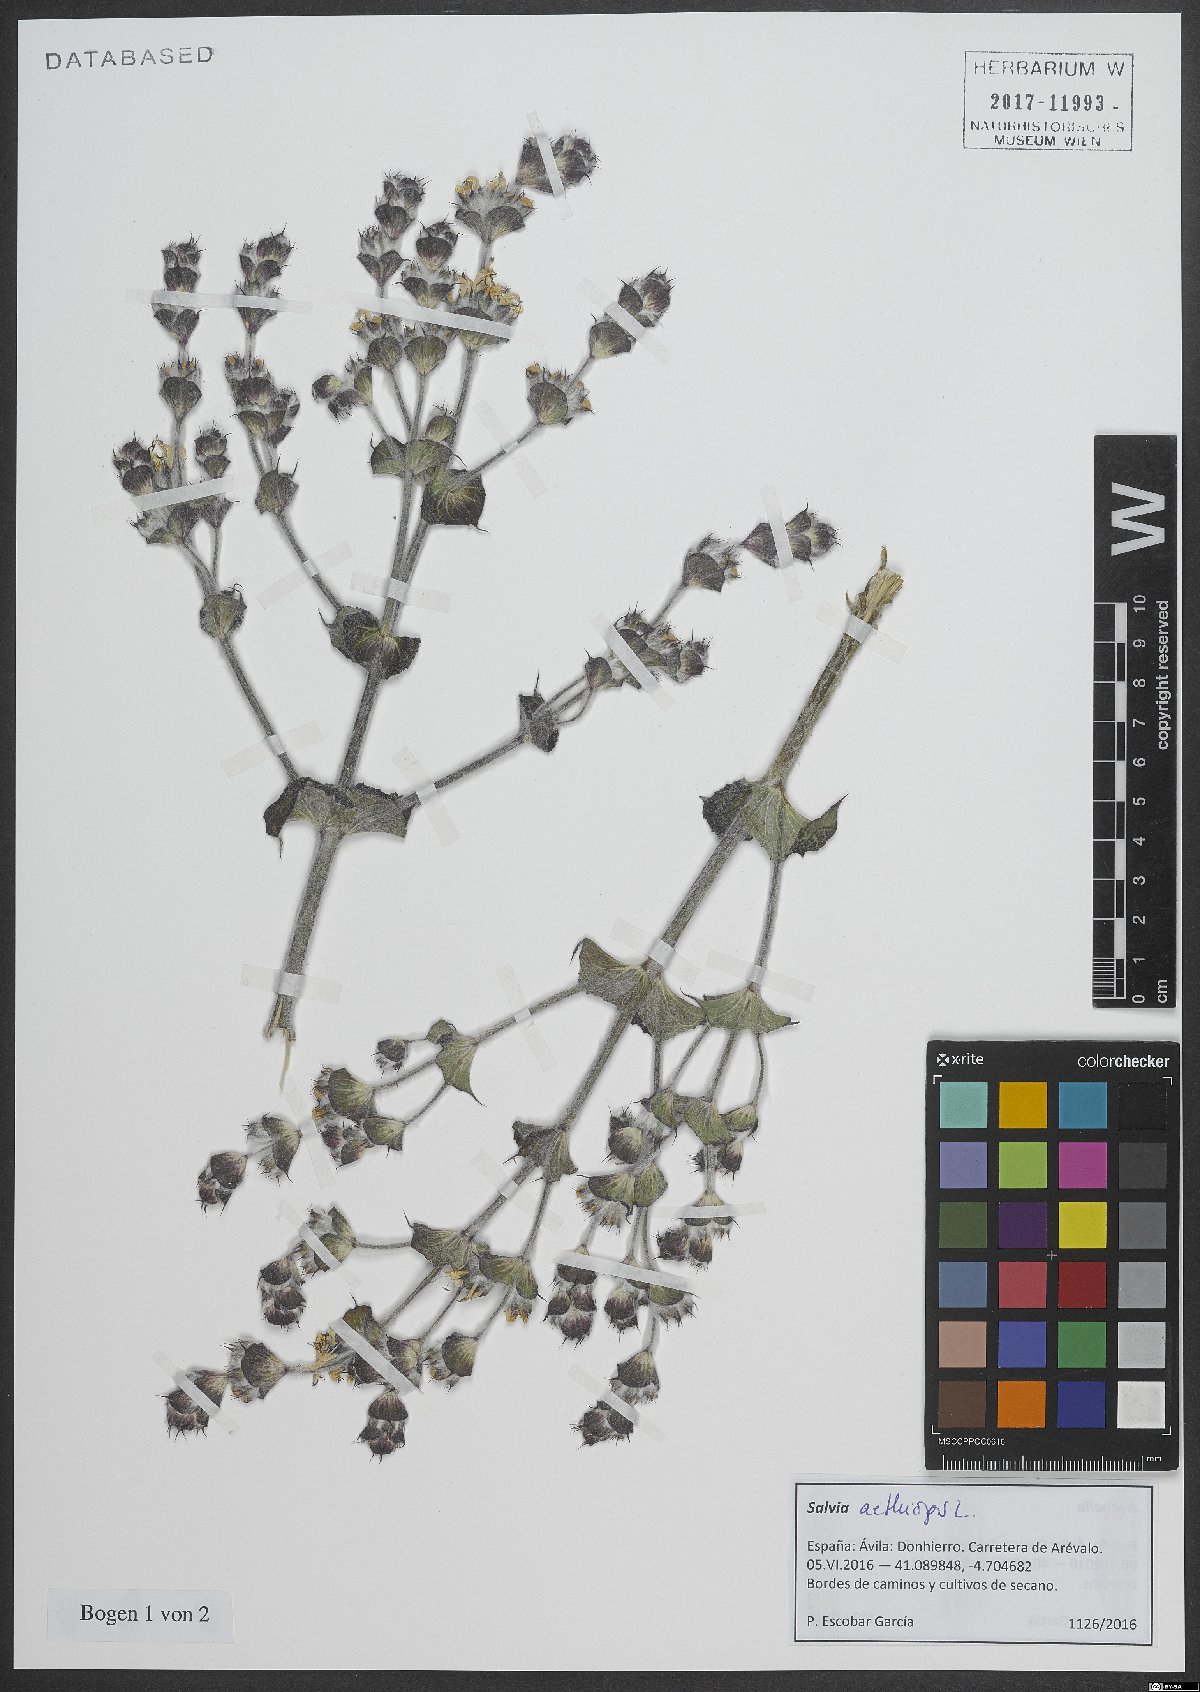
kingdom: Plantae
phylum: Tracheophyta
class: Magnoliopsida
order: Lamiales
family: Lamiaceae
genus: Salvia
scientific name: Salvia aethiopis
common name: Mediterranean sage
